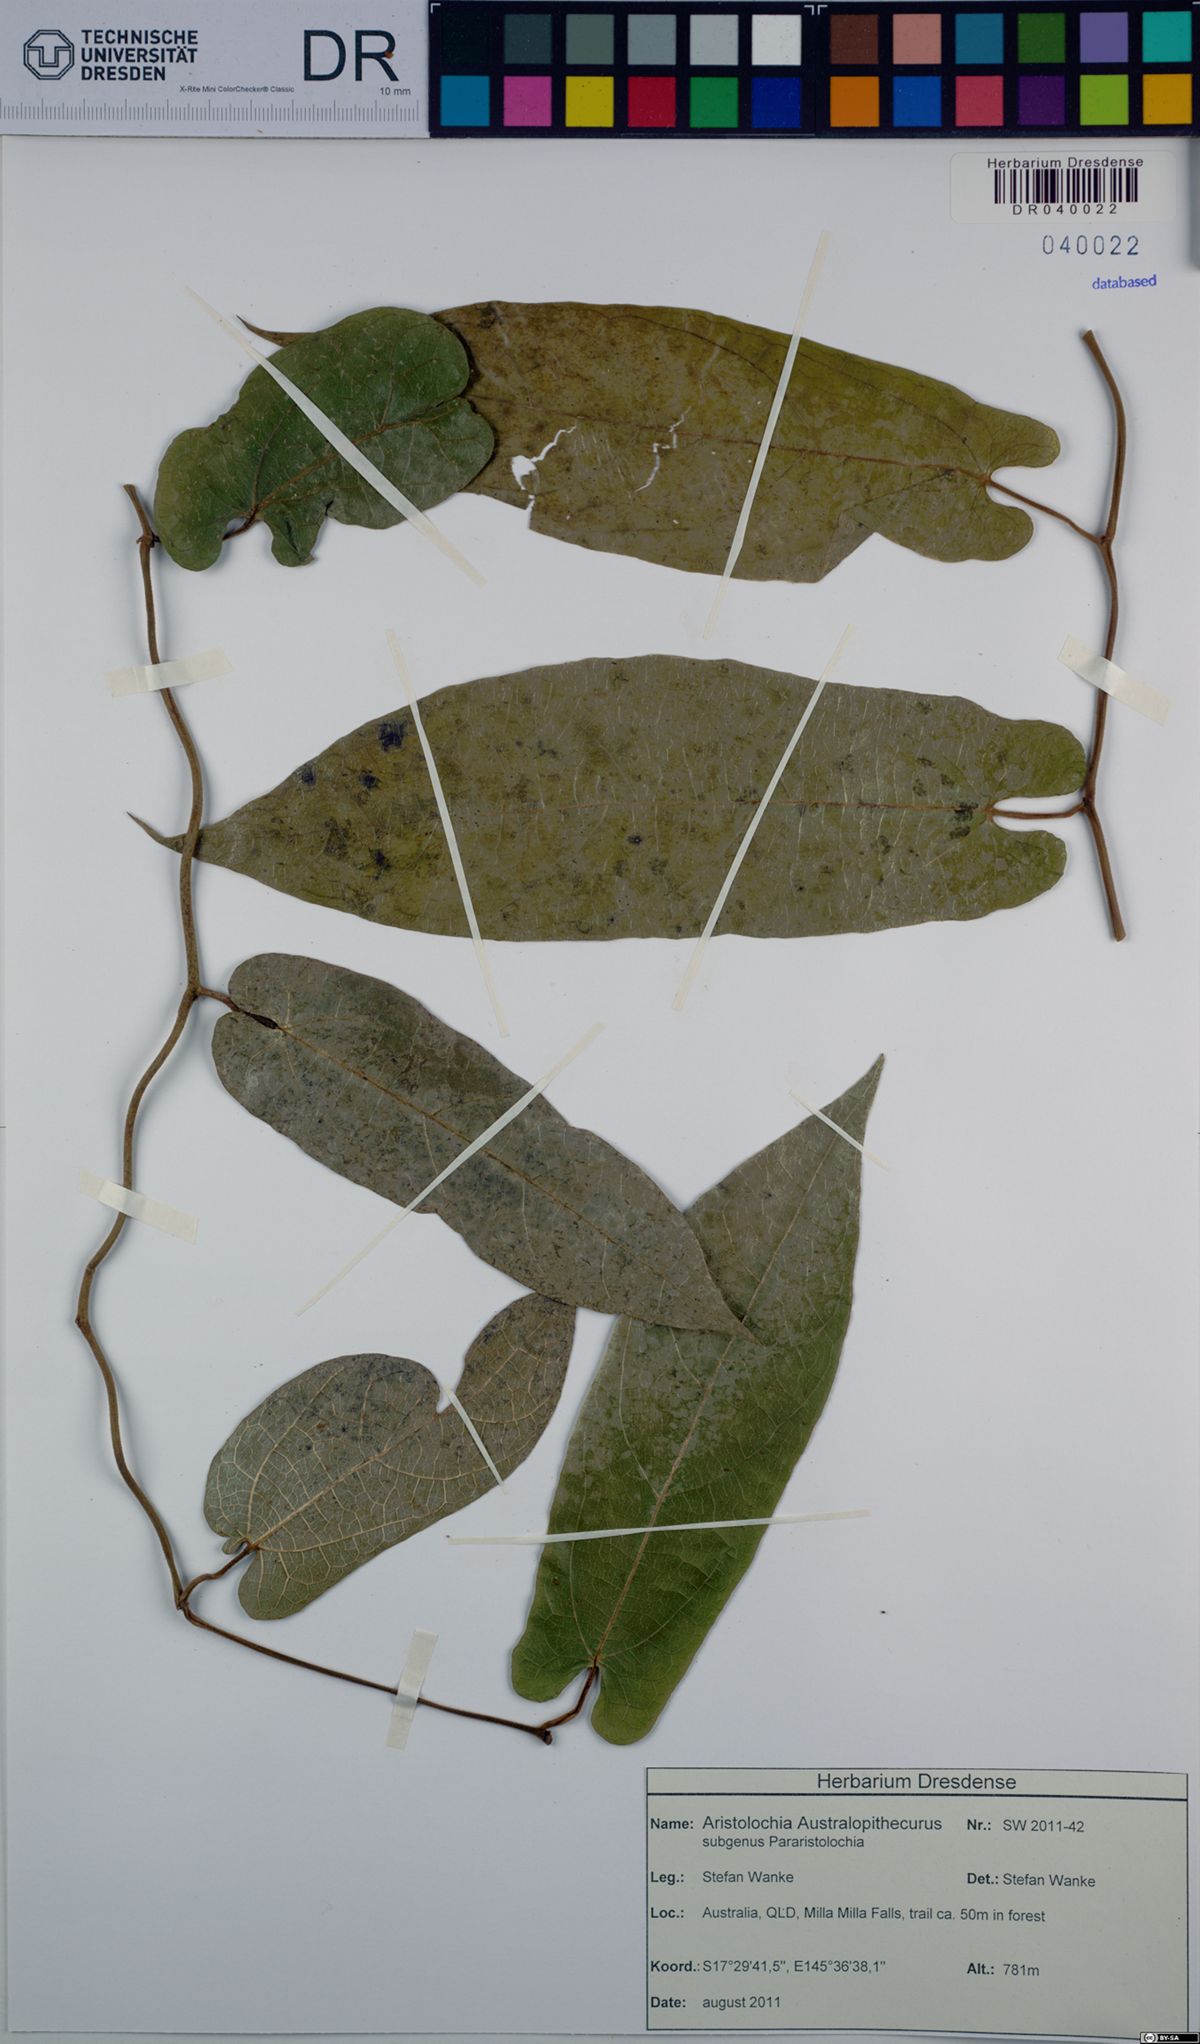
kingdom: Plantae
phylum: Tracheophyta
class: Magnoliopsida
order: Piperales
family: Aristolochiaceae
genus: Aristolochia
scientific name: Aristolochia australopithecurus
